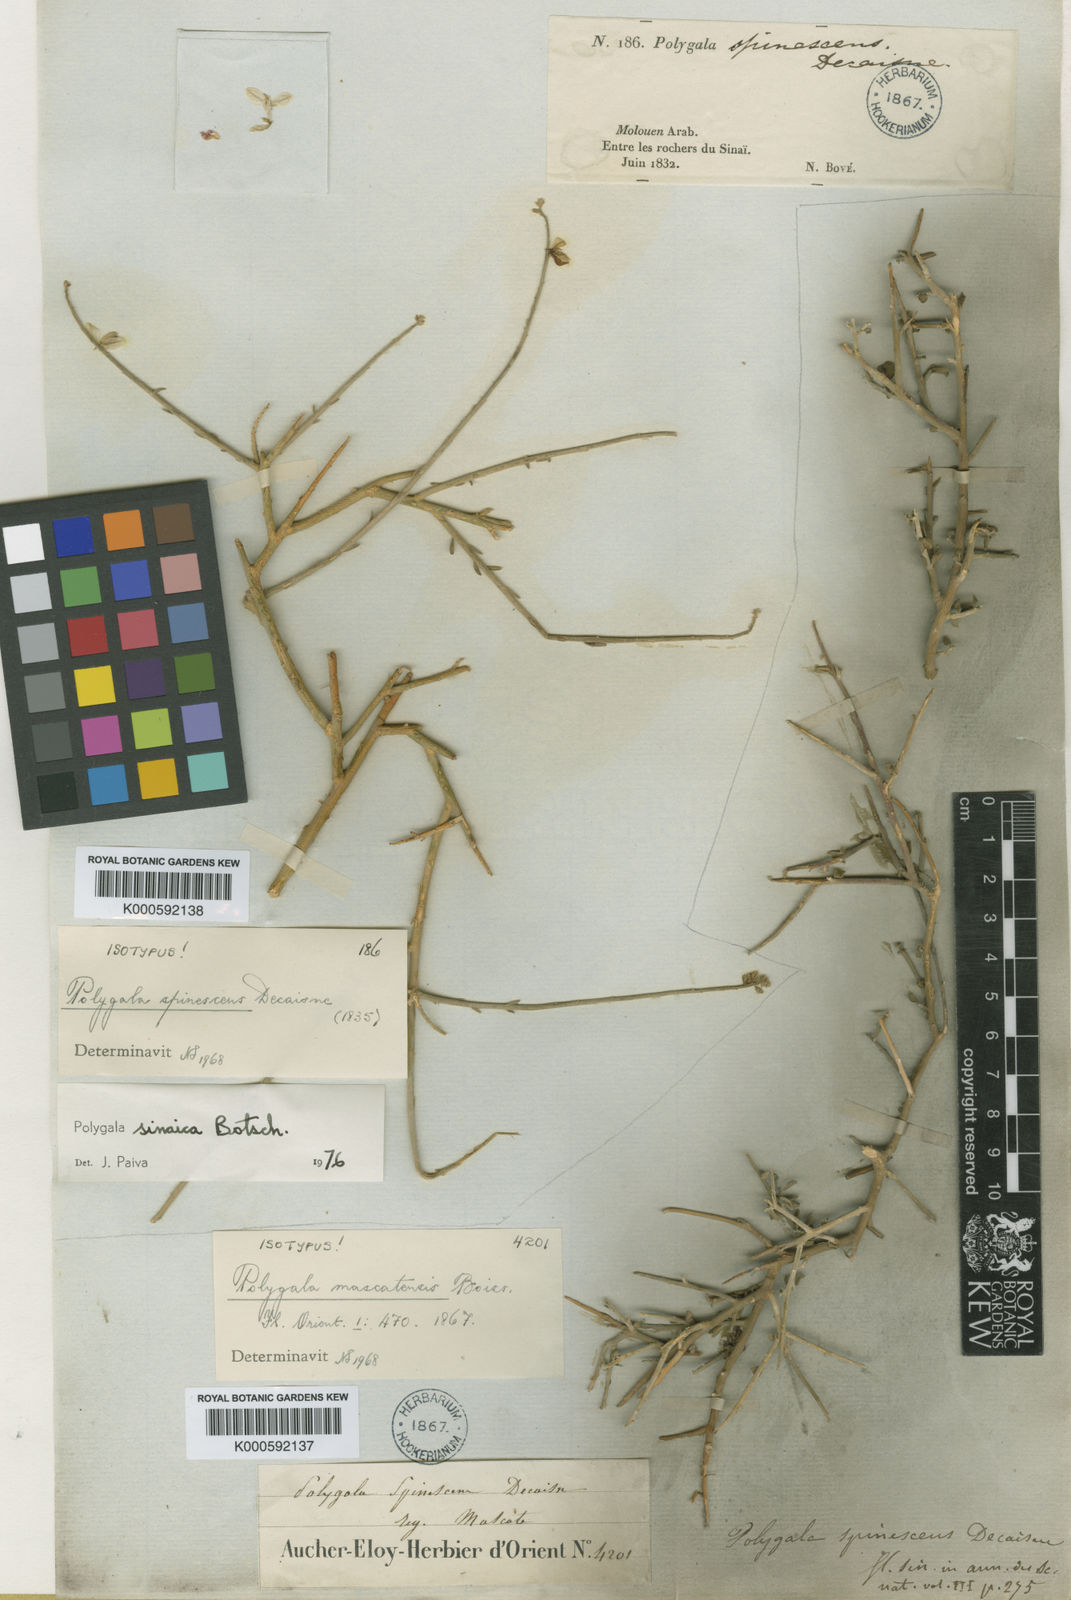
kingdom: Plantae
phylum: Tracheophyta
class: Magnoliopsida
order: Fabales
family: Polygalaceae
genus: Polygala
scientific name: Polygala mascatensis
